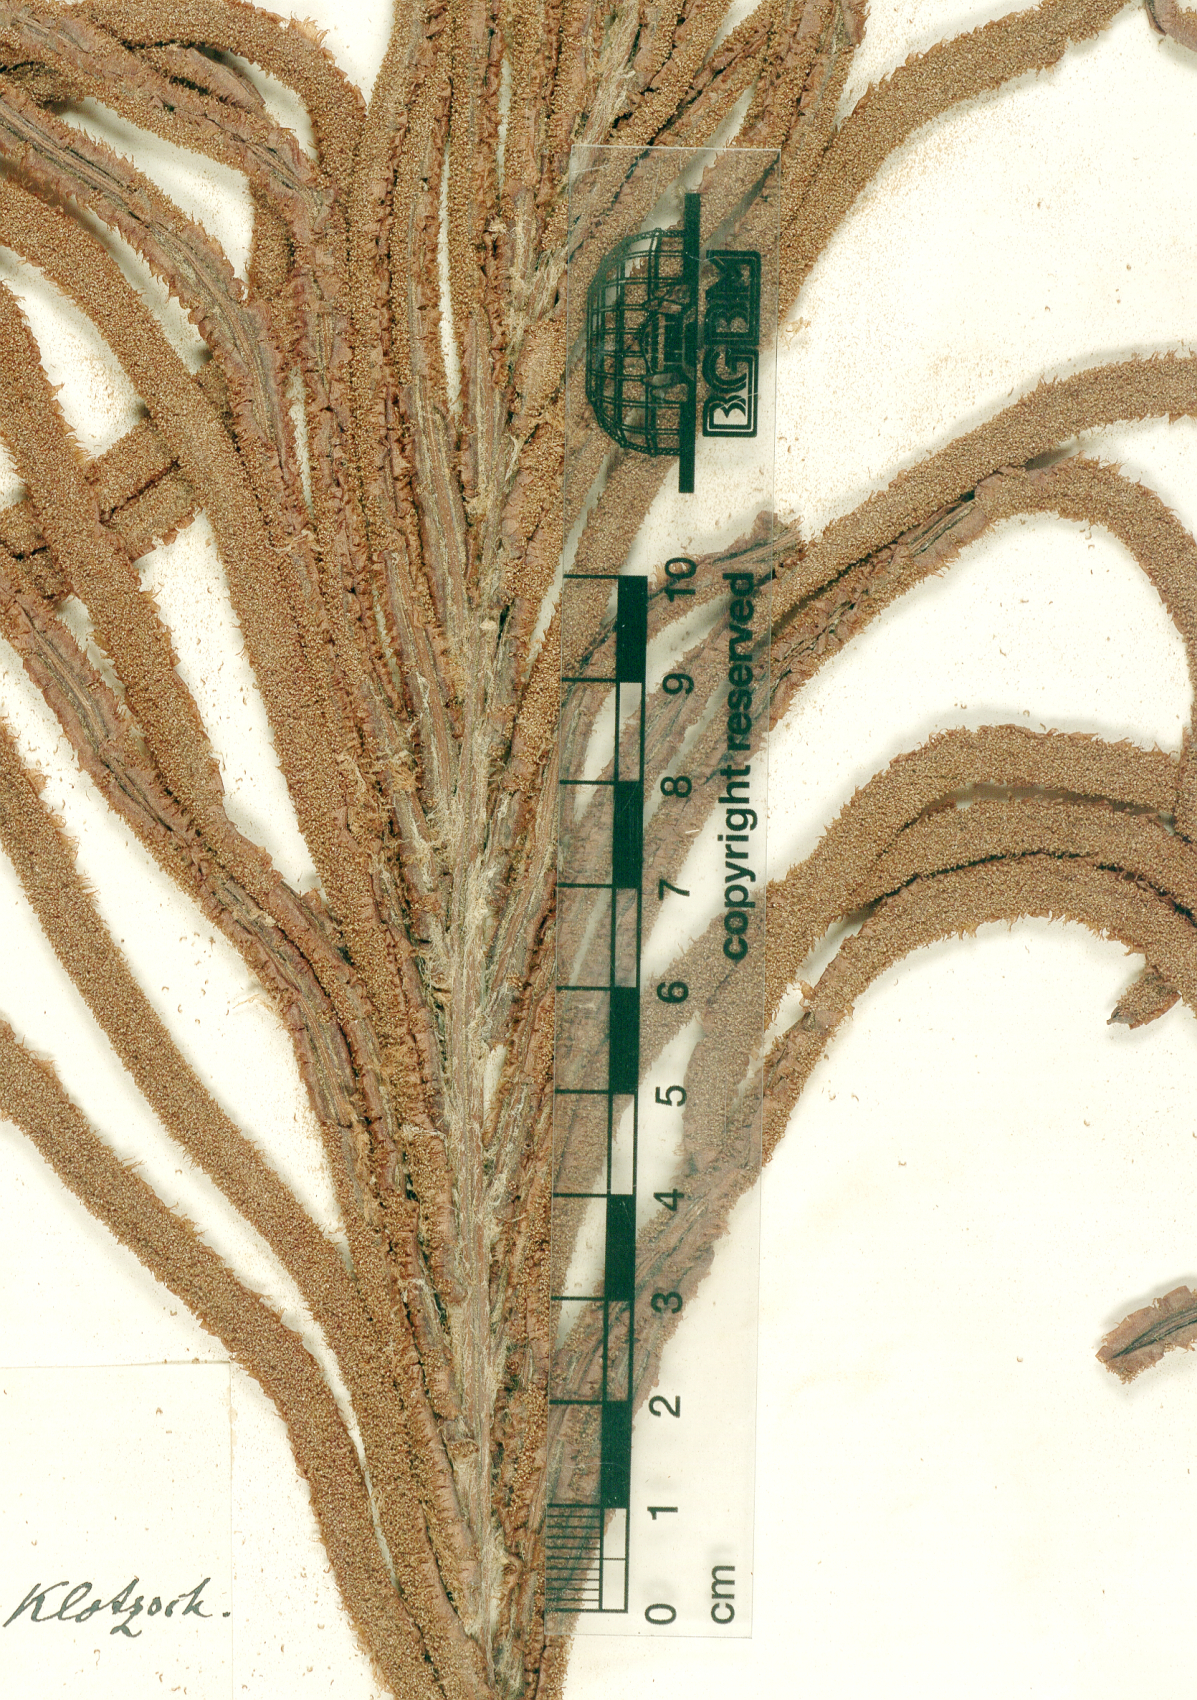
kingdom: Plantae
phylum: Tracheophyta
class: Polypodiopsida
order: Polypodiales
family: Blechnaceae
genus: Lomariocycas
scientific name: Lomariocycas schomburgkii
